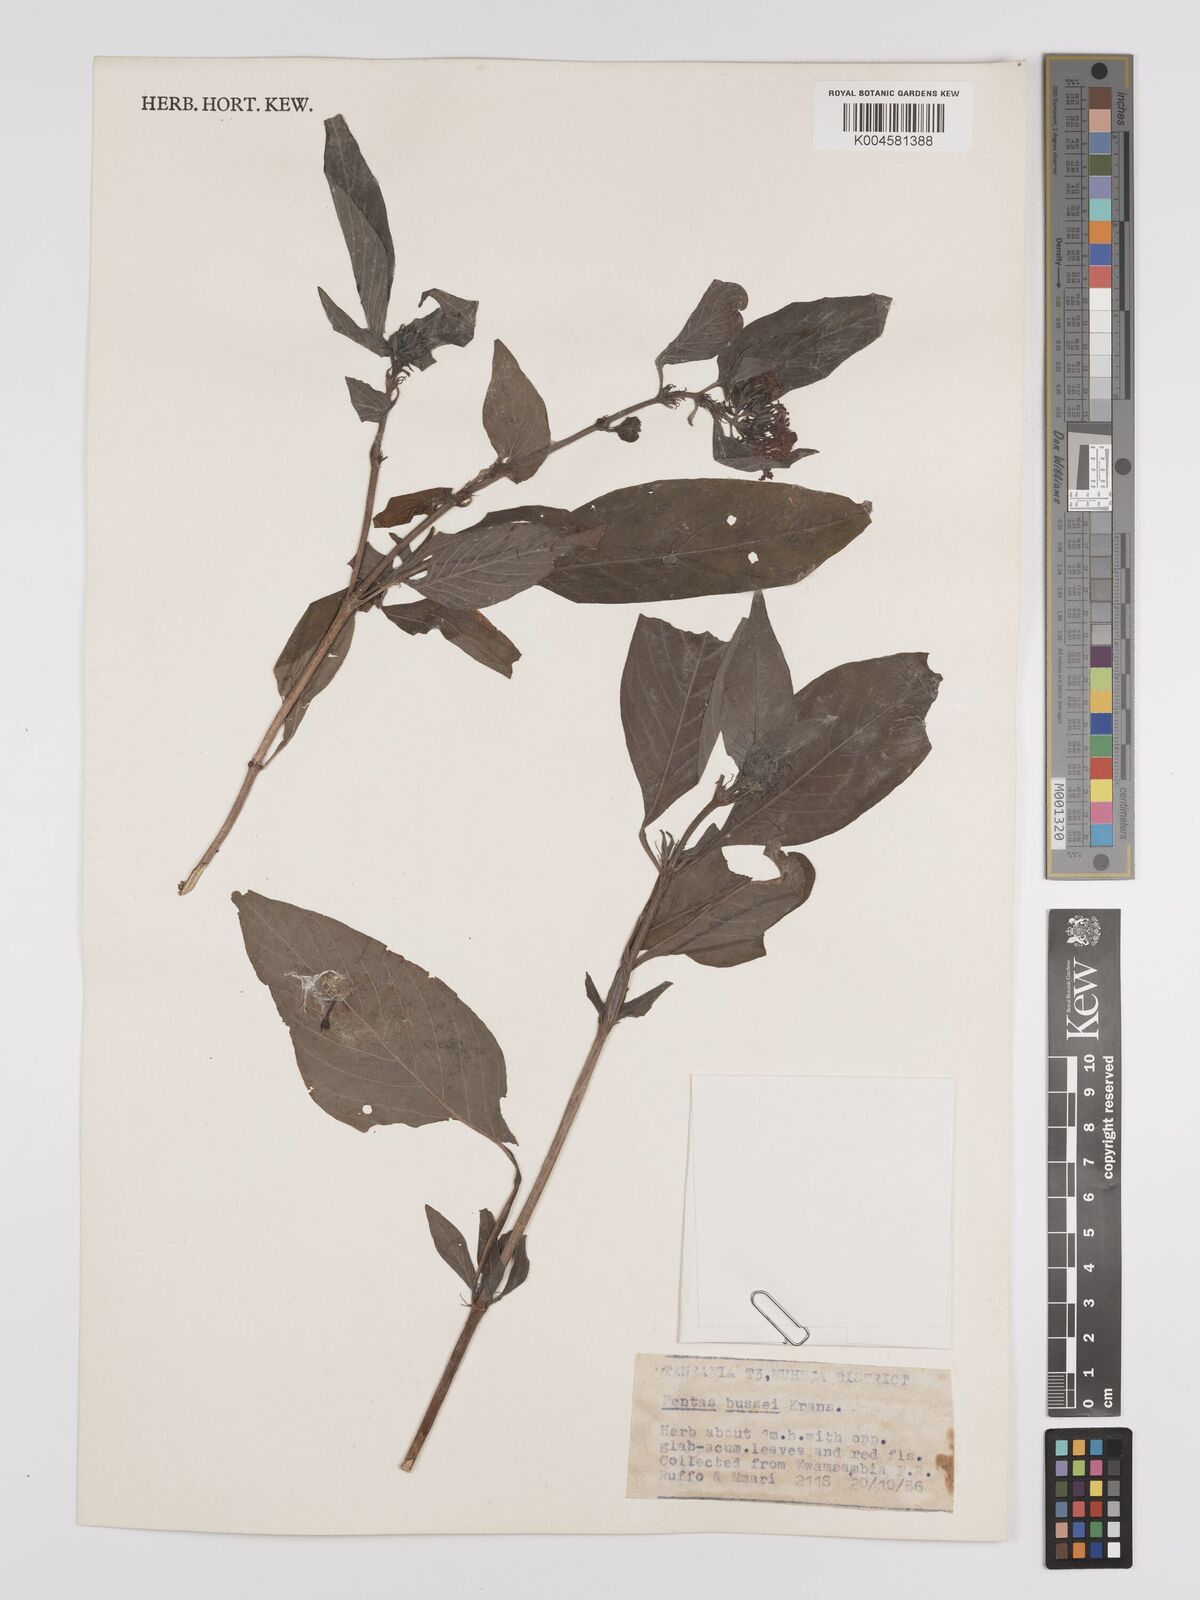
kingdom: Plantae
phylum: Tracheophyta
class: Magnoliopsida
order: Gentianales
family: Rubiaceae
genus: Rhodopentas
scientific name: Rhodopentas bussei
